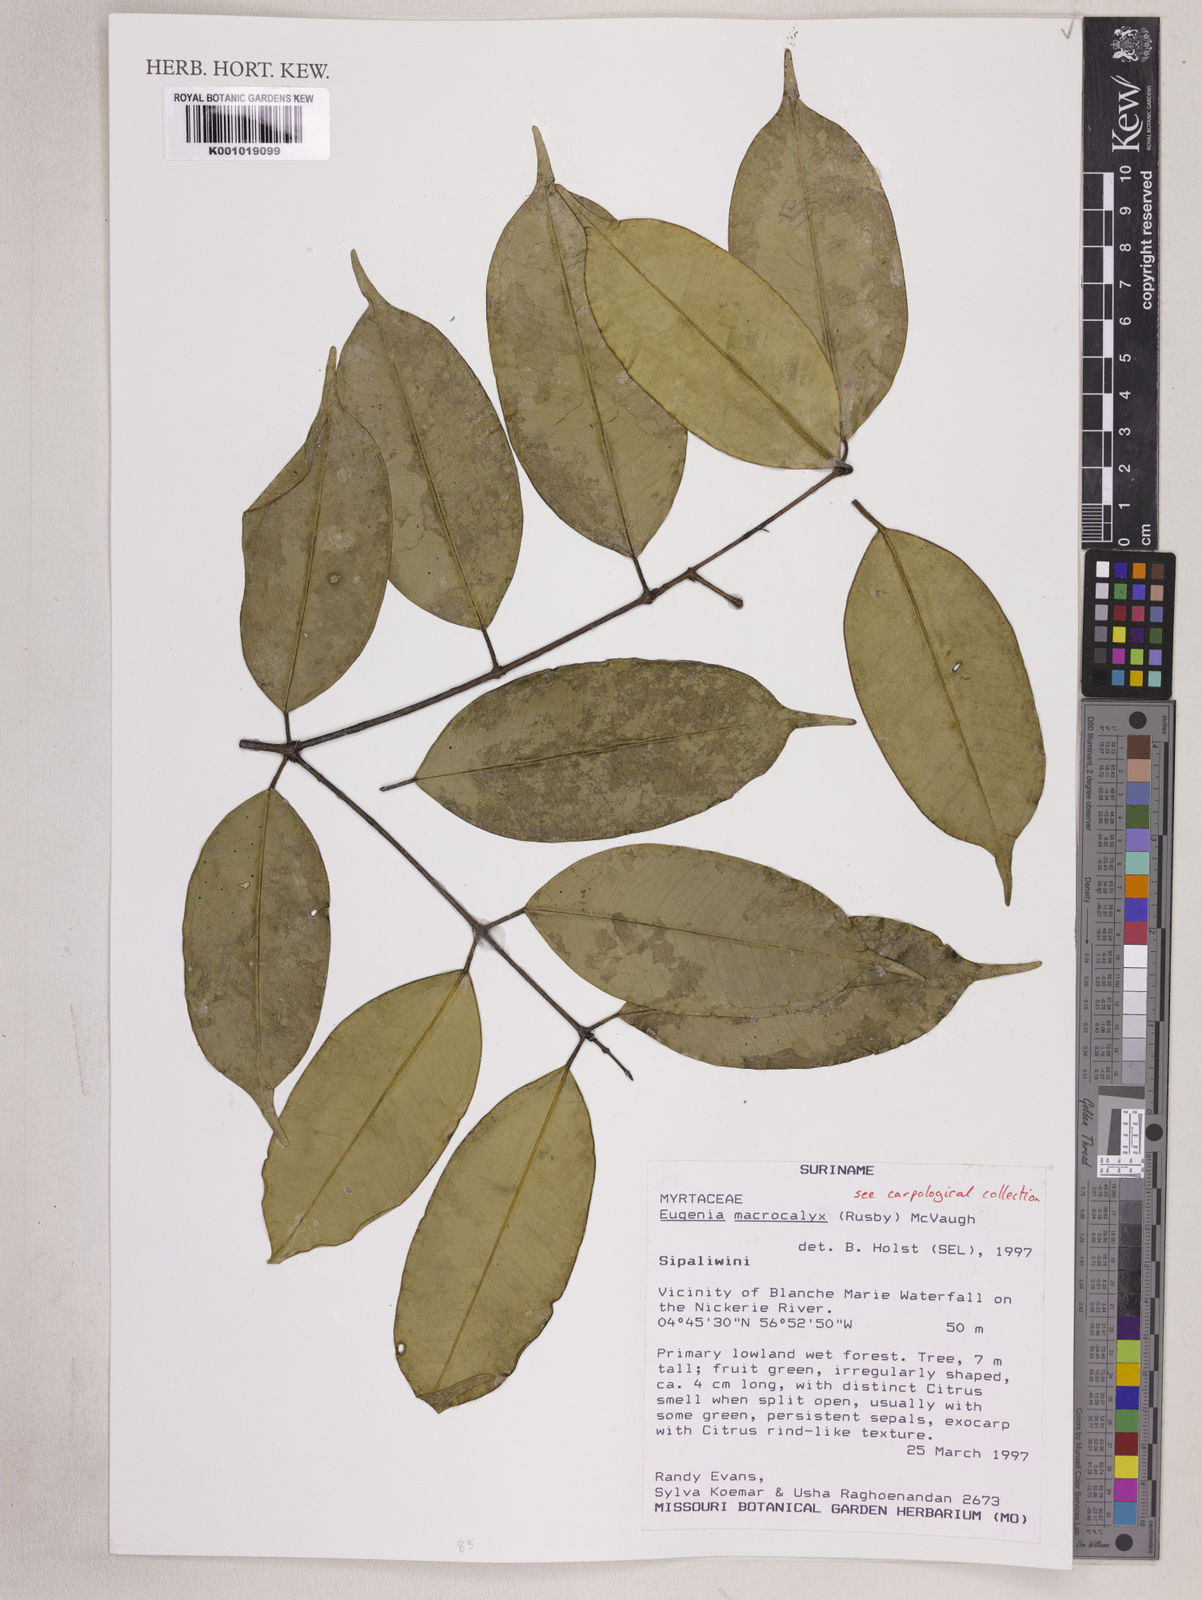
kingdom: Plantae
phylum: Tracheophyta
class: Magnoliopsida
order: Myrtales
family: Myrtaceae
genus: Eugenia
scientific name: Eugenia wentii
